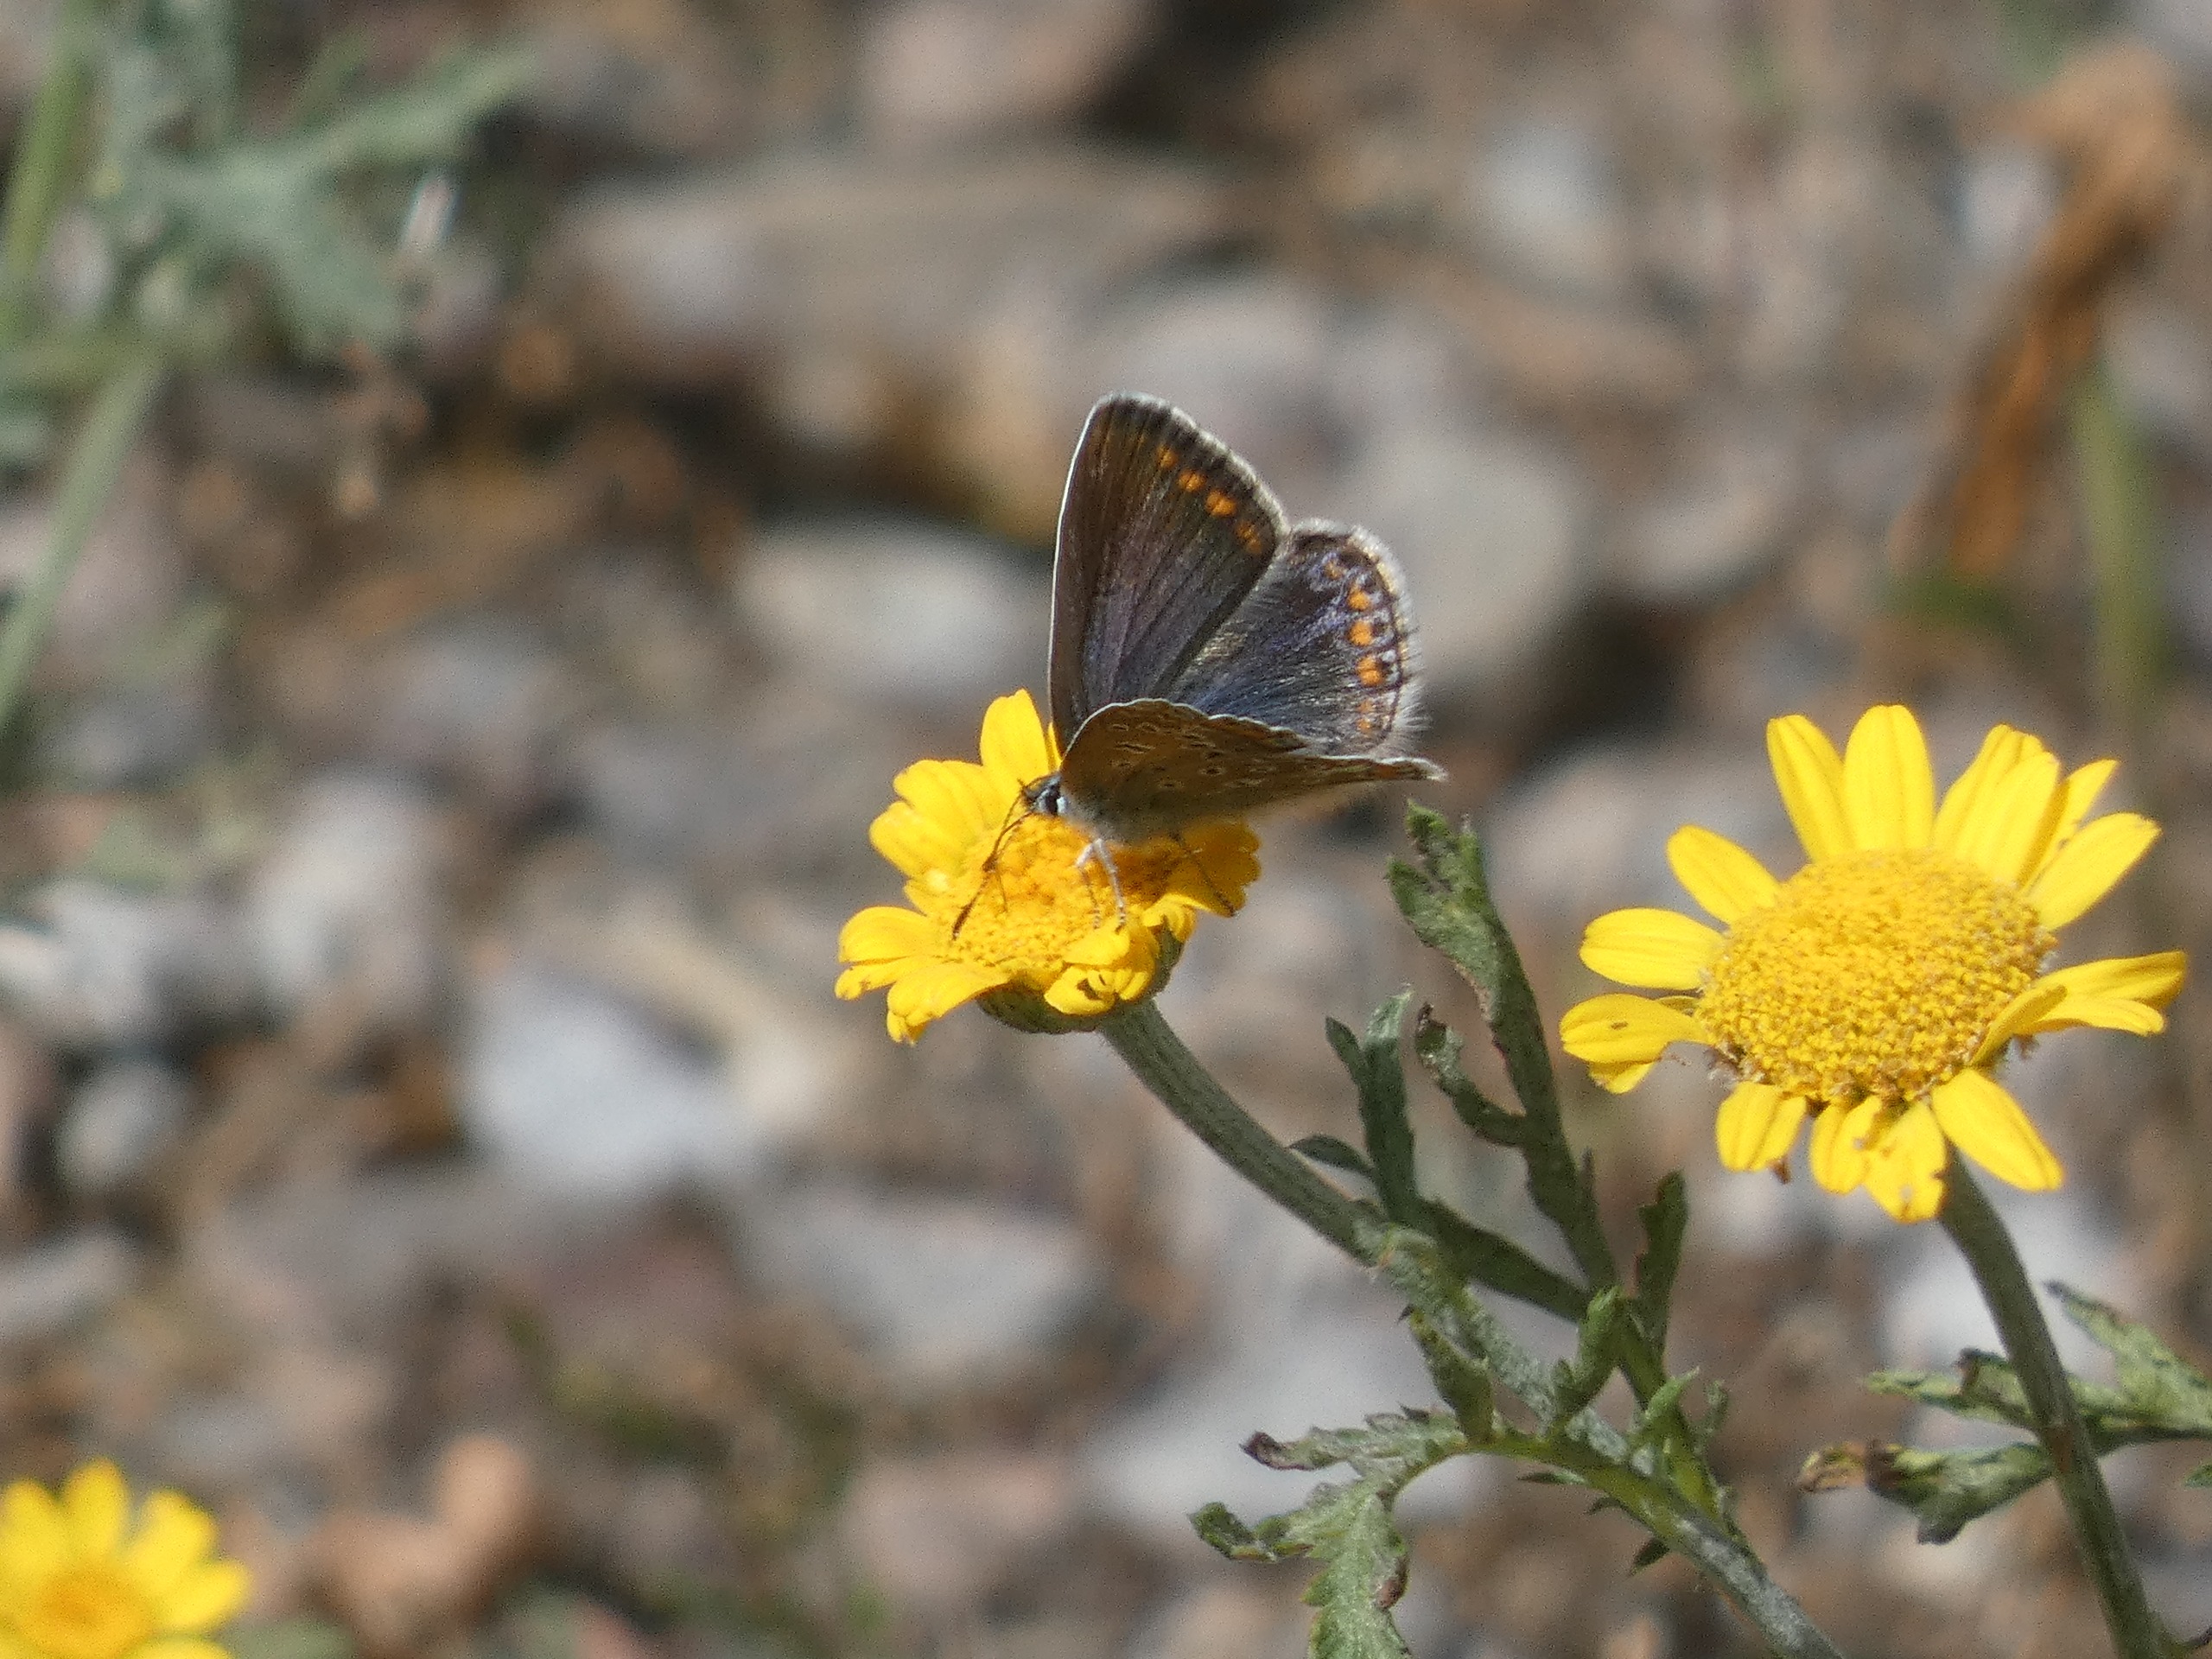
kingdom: Animalia
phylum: Arthropoda
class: Insecta
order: Lepidoptera
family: Lycaenidae
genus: Polyommatus
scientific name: Polyommatus icarus
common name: Almindelig blåfugl
